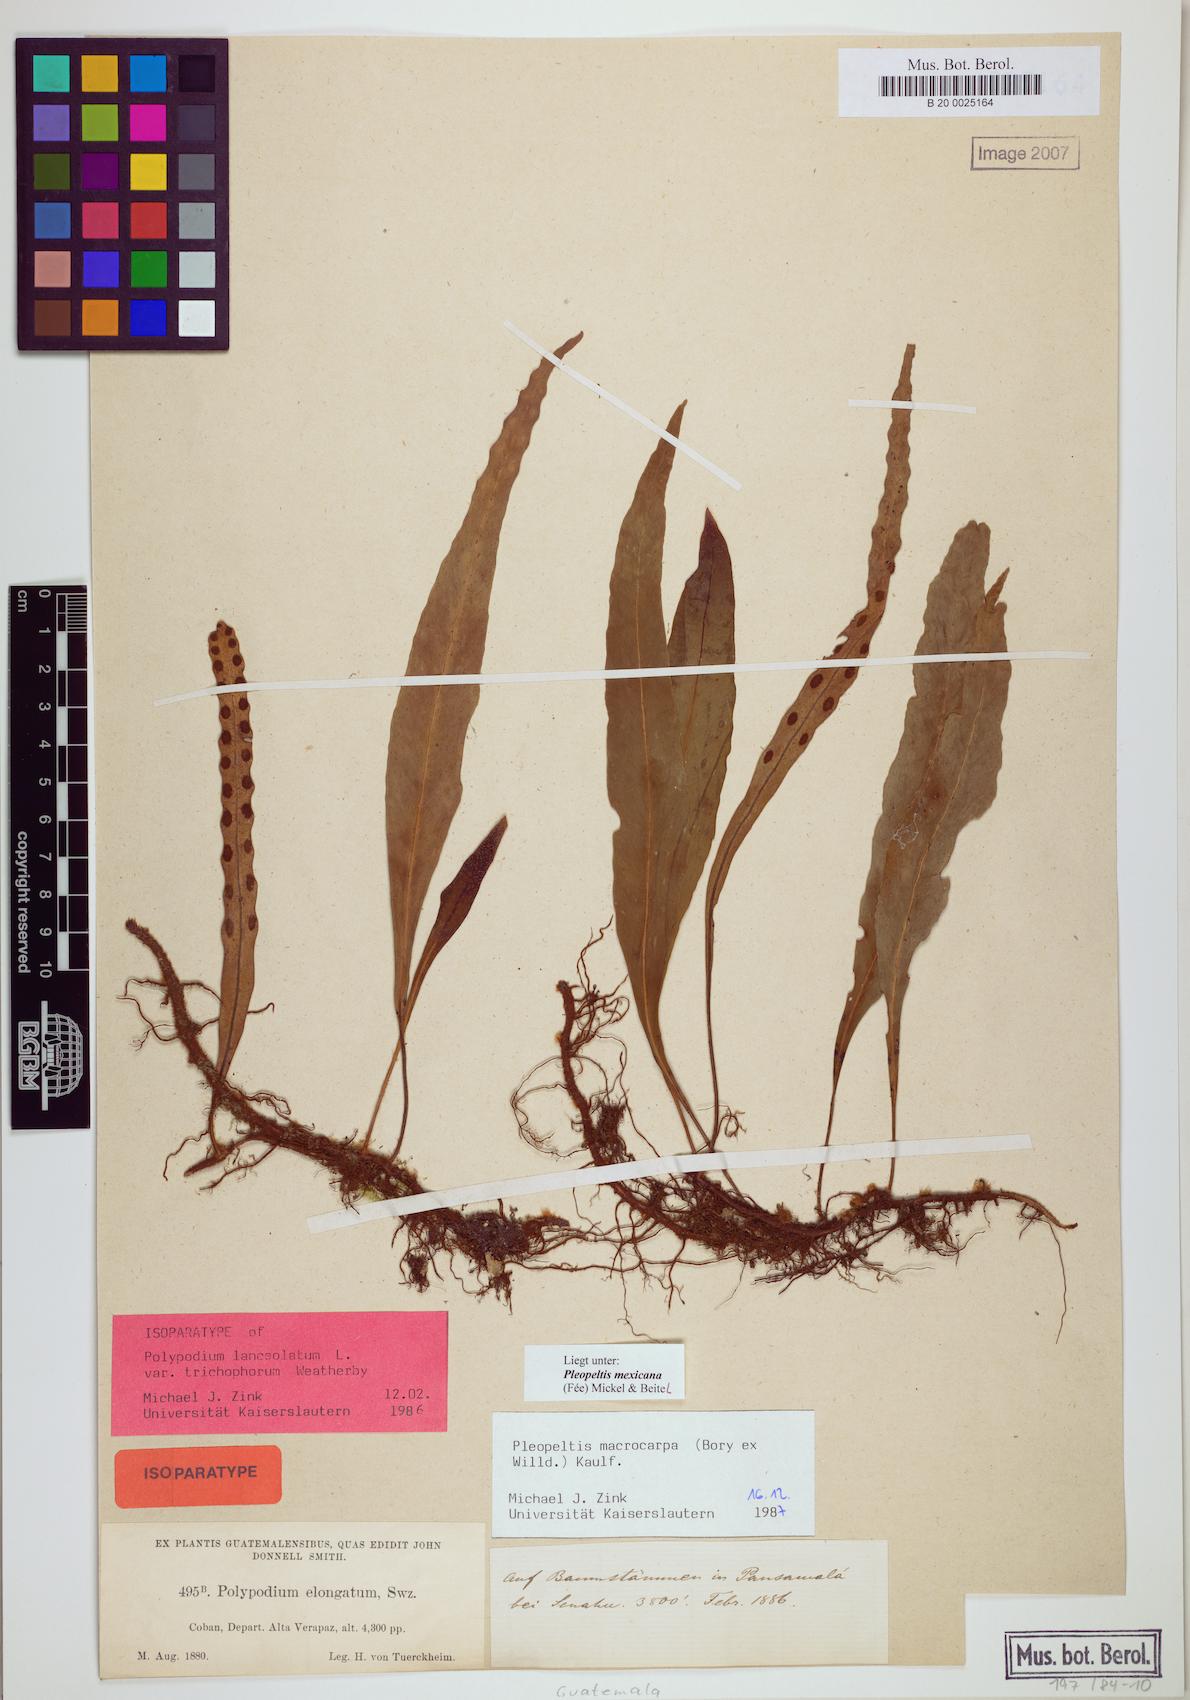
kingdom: Plantae
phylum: Tracheophyta
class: Polypodiopsida
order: Polypodiales
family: Polypodiaceae
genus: Pleopeltis
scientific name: Pleopeltis mexicana
